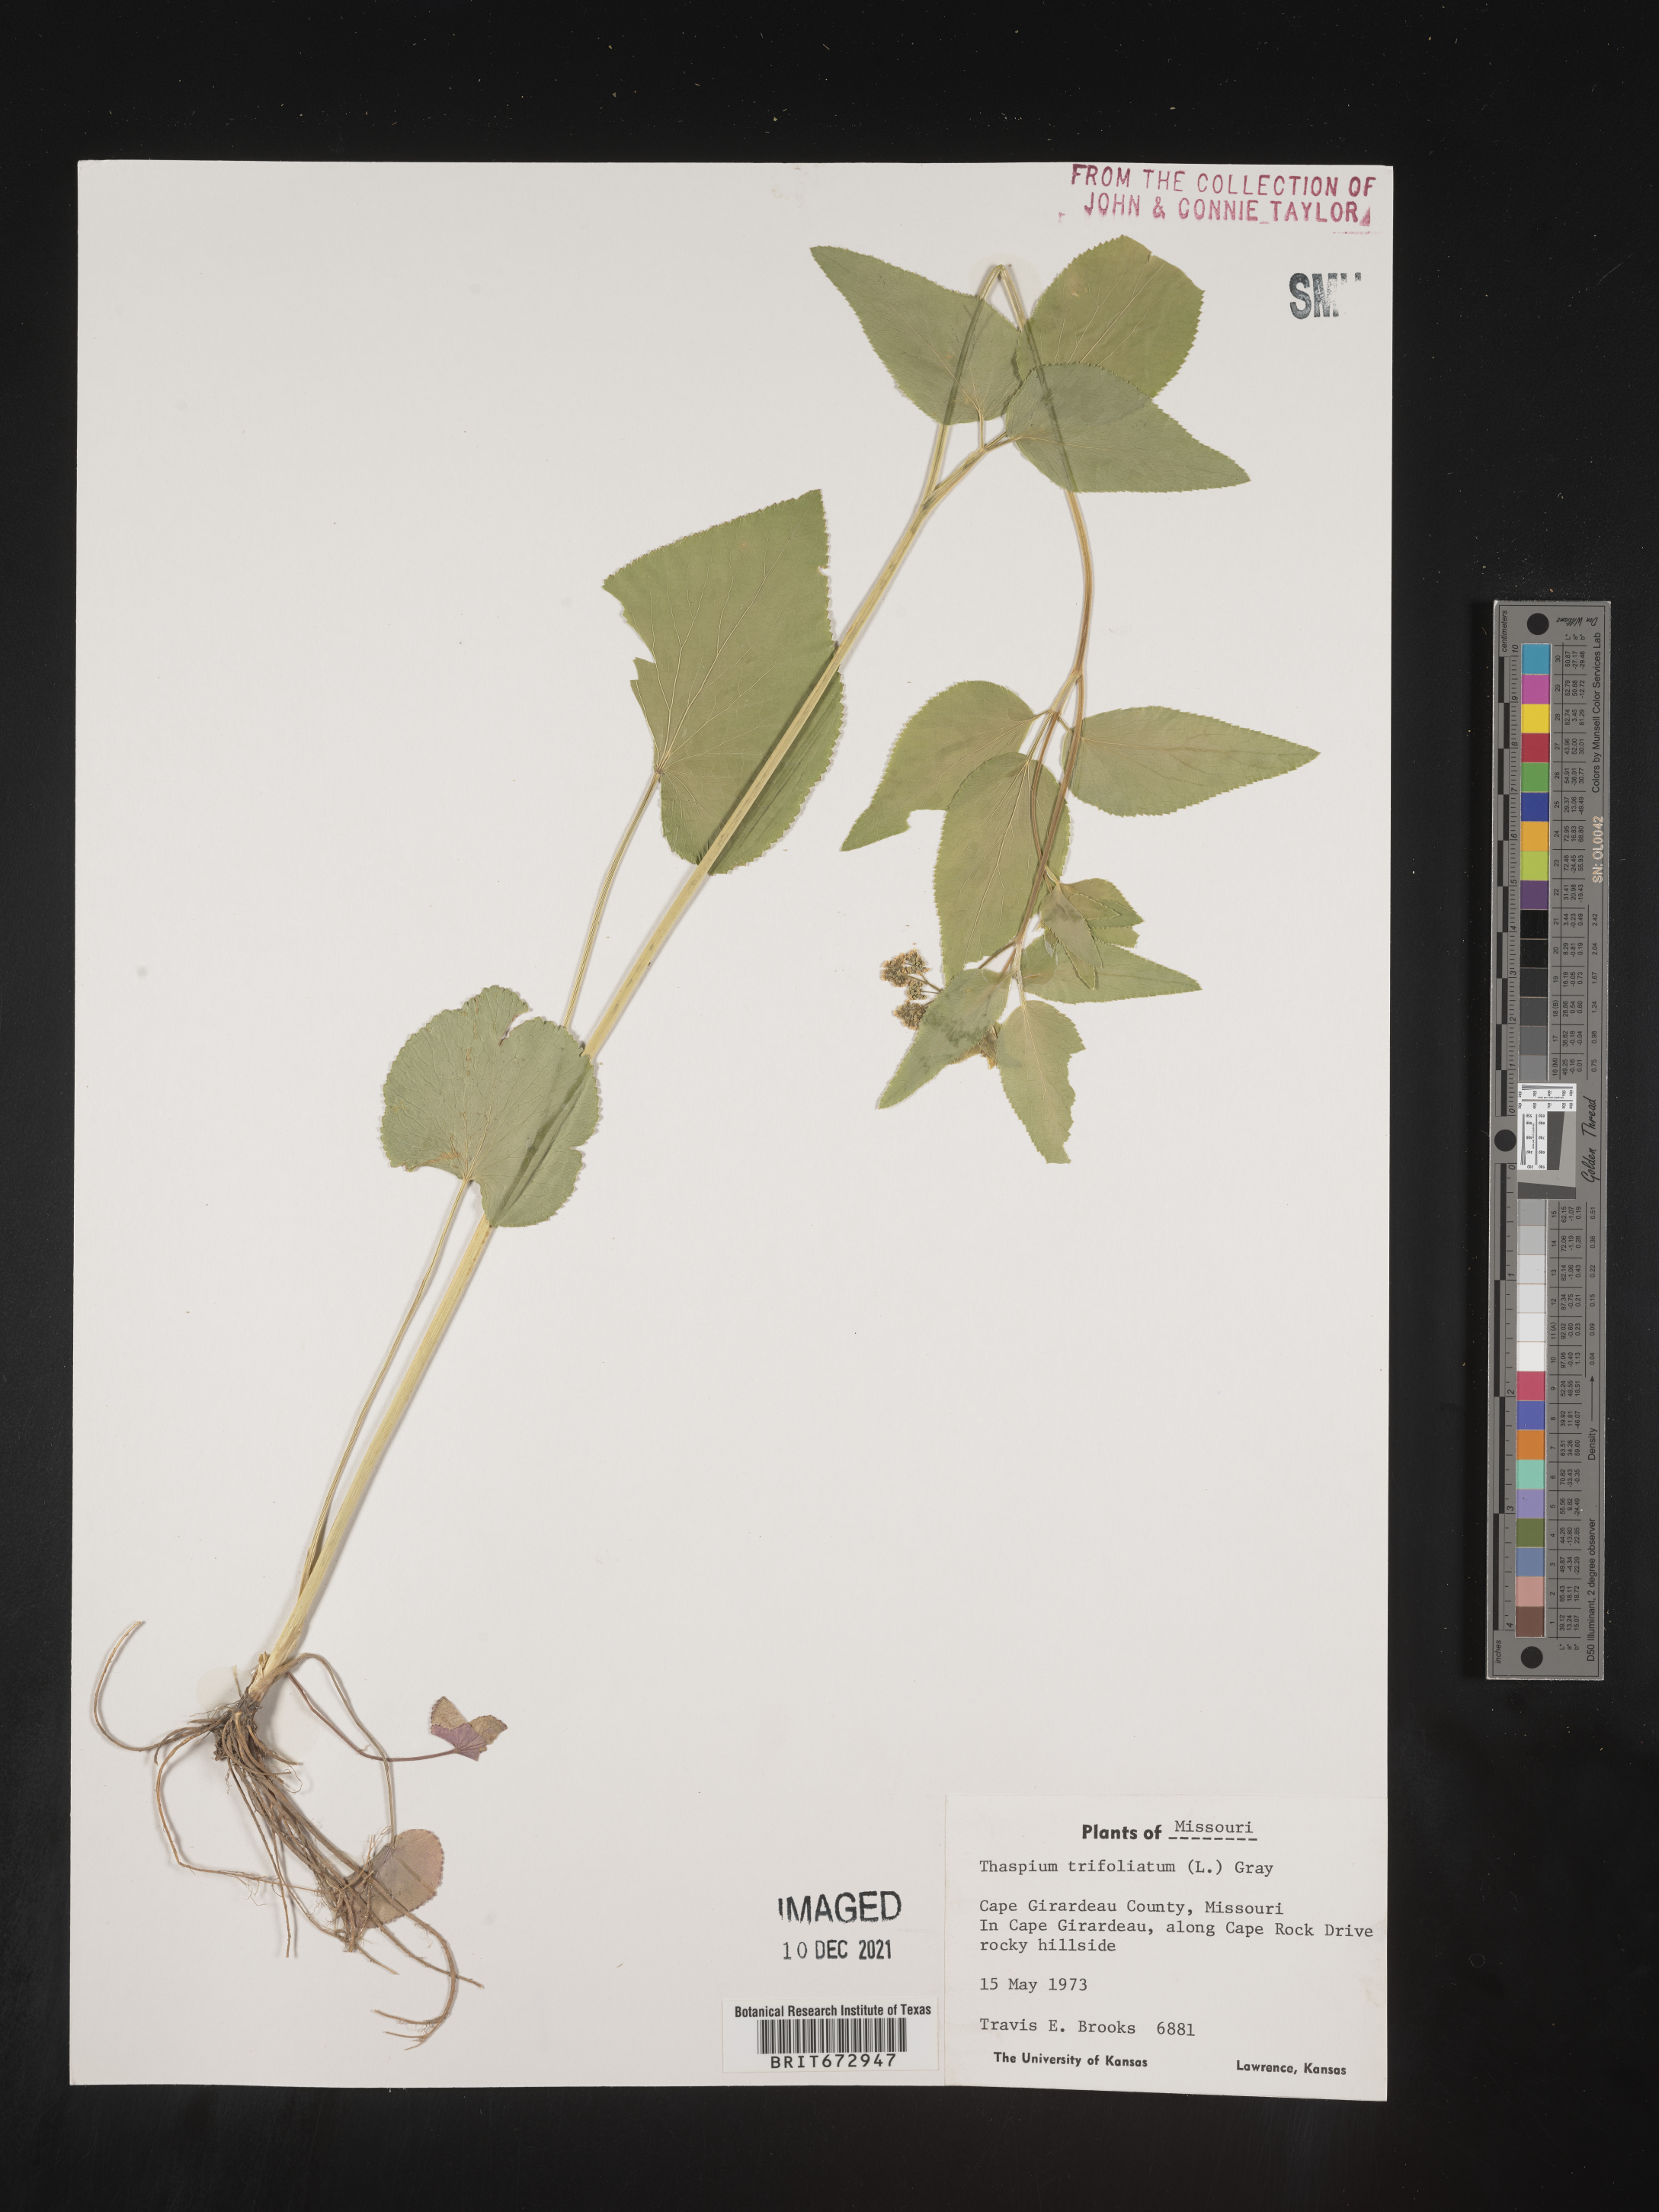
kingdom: Plantae
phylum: Tracheophyta
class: Magnoliopsida
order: Apiales
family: Apiaceae
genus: Thaspium
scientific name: Thaspium
